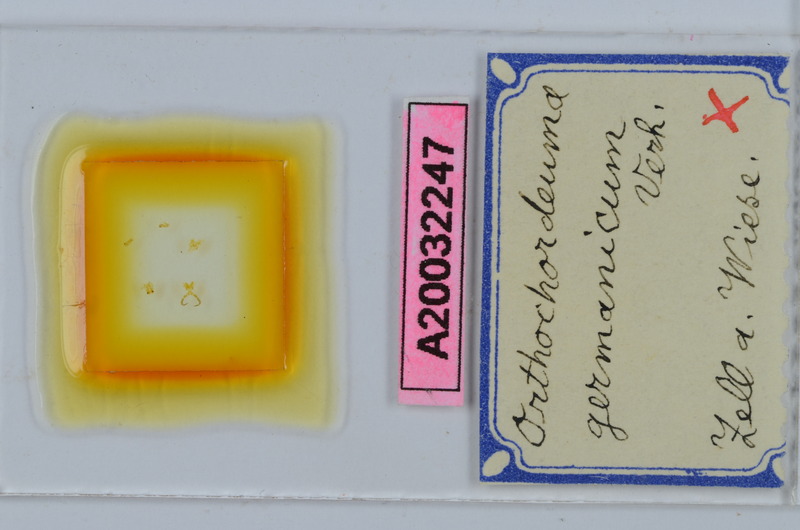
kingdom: Animalia
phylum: Arthropoda
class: Diplopoda
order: Chordeumatida
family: Chordeumatidae
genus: Mycogona
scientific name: Mycogona germanica
